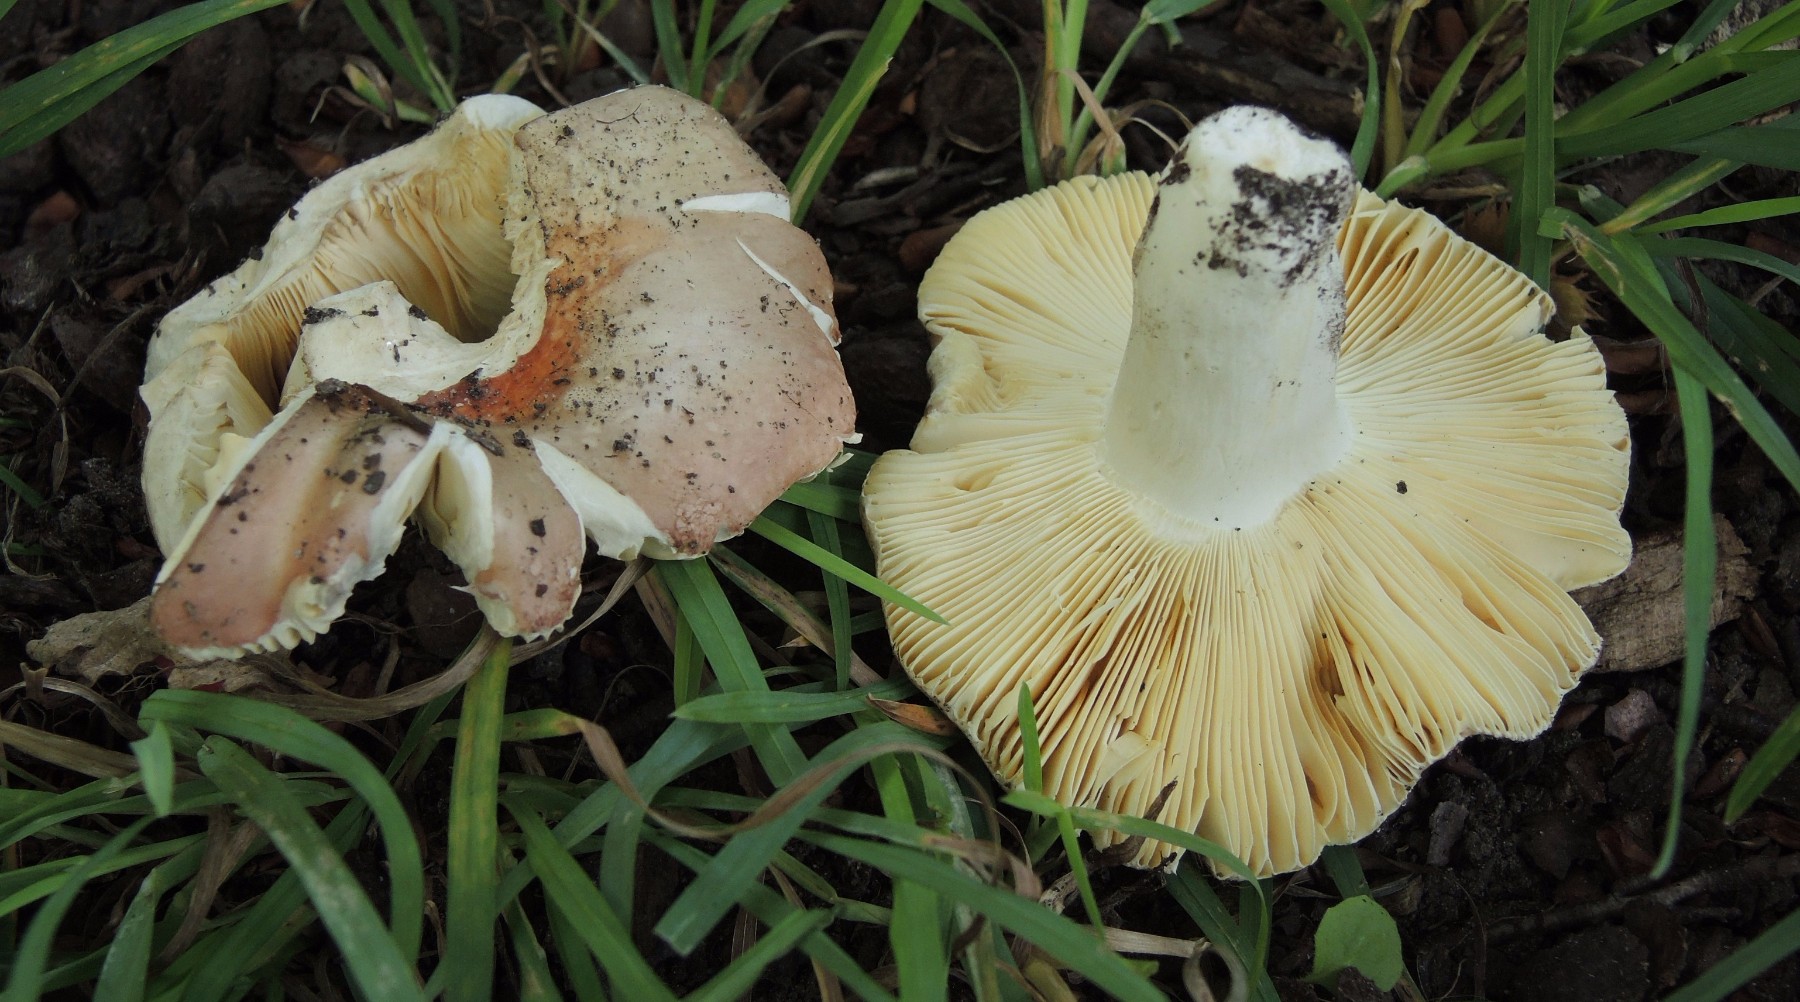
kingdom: Fungi
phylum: Basidiomycota
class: Agaricomycetes
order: Russulales
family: Russulaceae
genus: Russula
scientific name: Russula veternosa
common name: blødkødet skørhat
